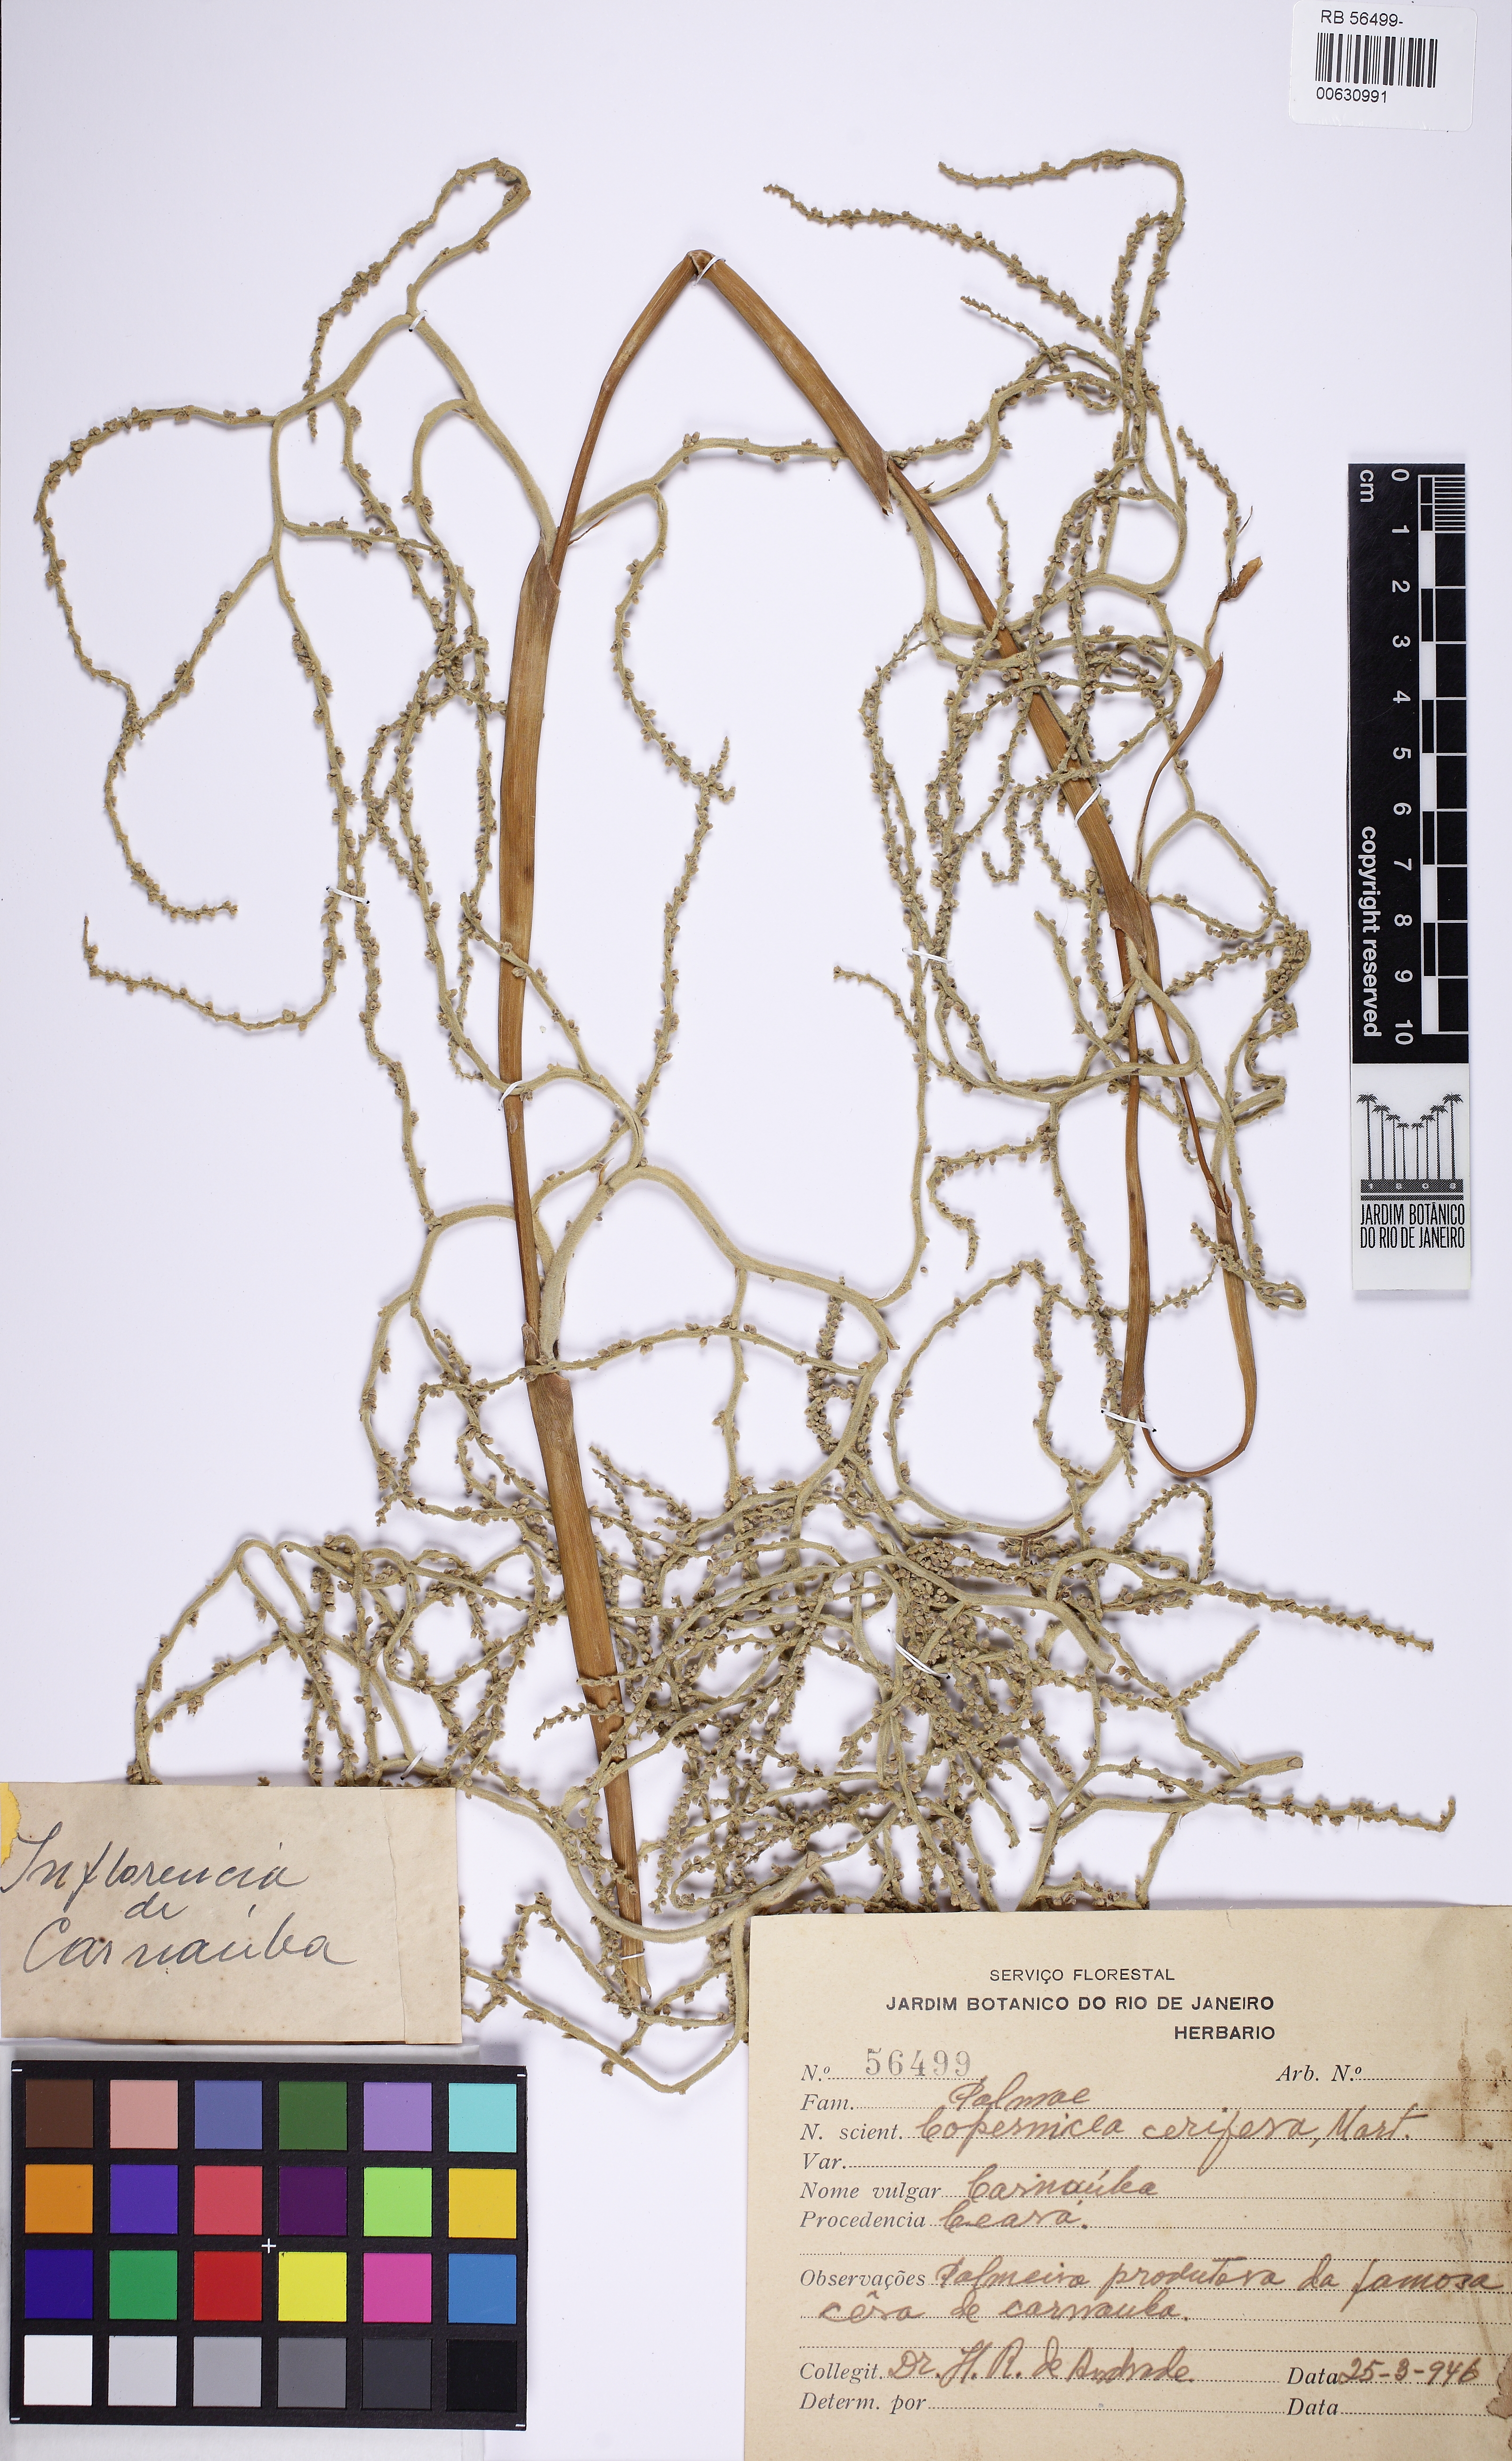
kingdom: Plantae
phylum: Tracheophyta
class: Liliopsida
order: Arecales
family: Arecaceae
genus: Copernicia
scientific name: Copernicia prunifera
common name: Carnauba palm
